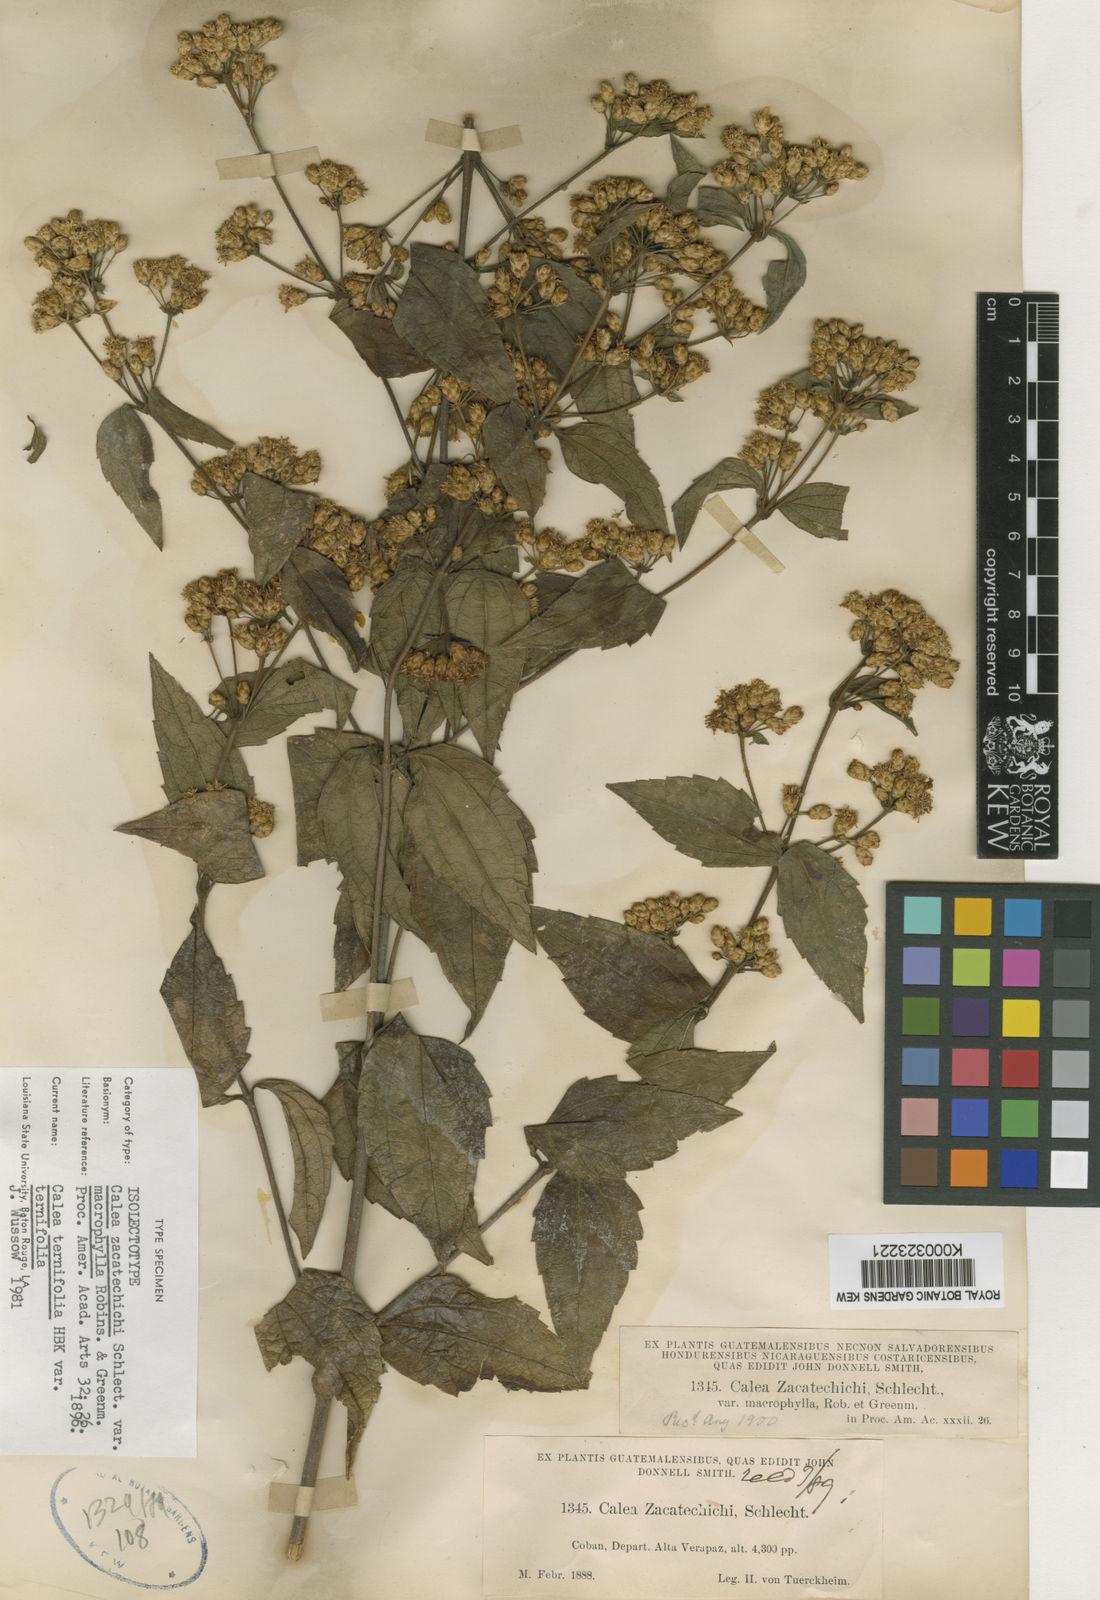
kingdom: Plantae
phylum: Tracheophyta
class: Magnoliopsida
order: Asterales
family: Asteraceae
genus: Calea
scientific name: Calea ternifolia
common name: Mexican calea
